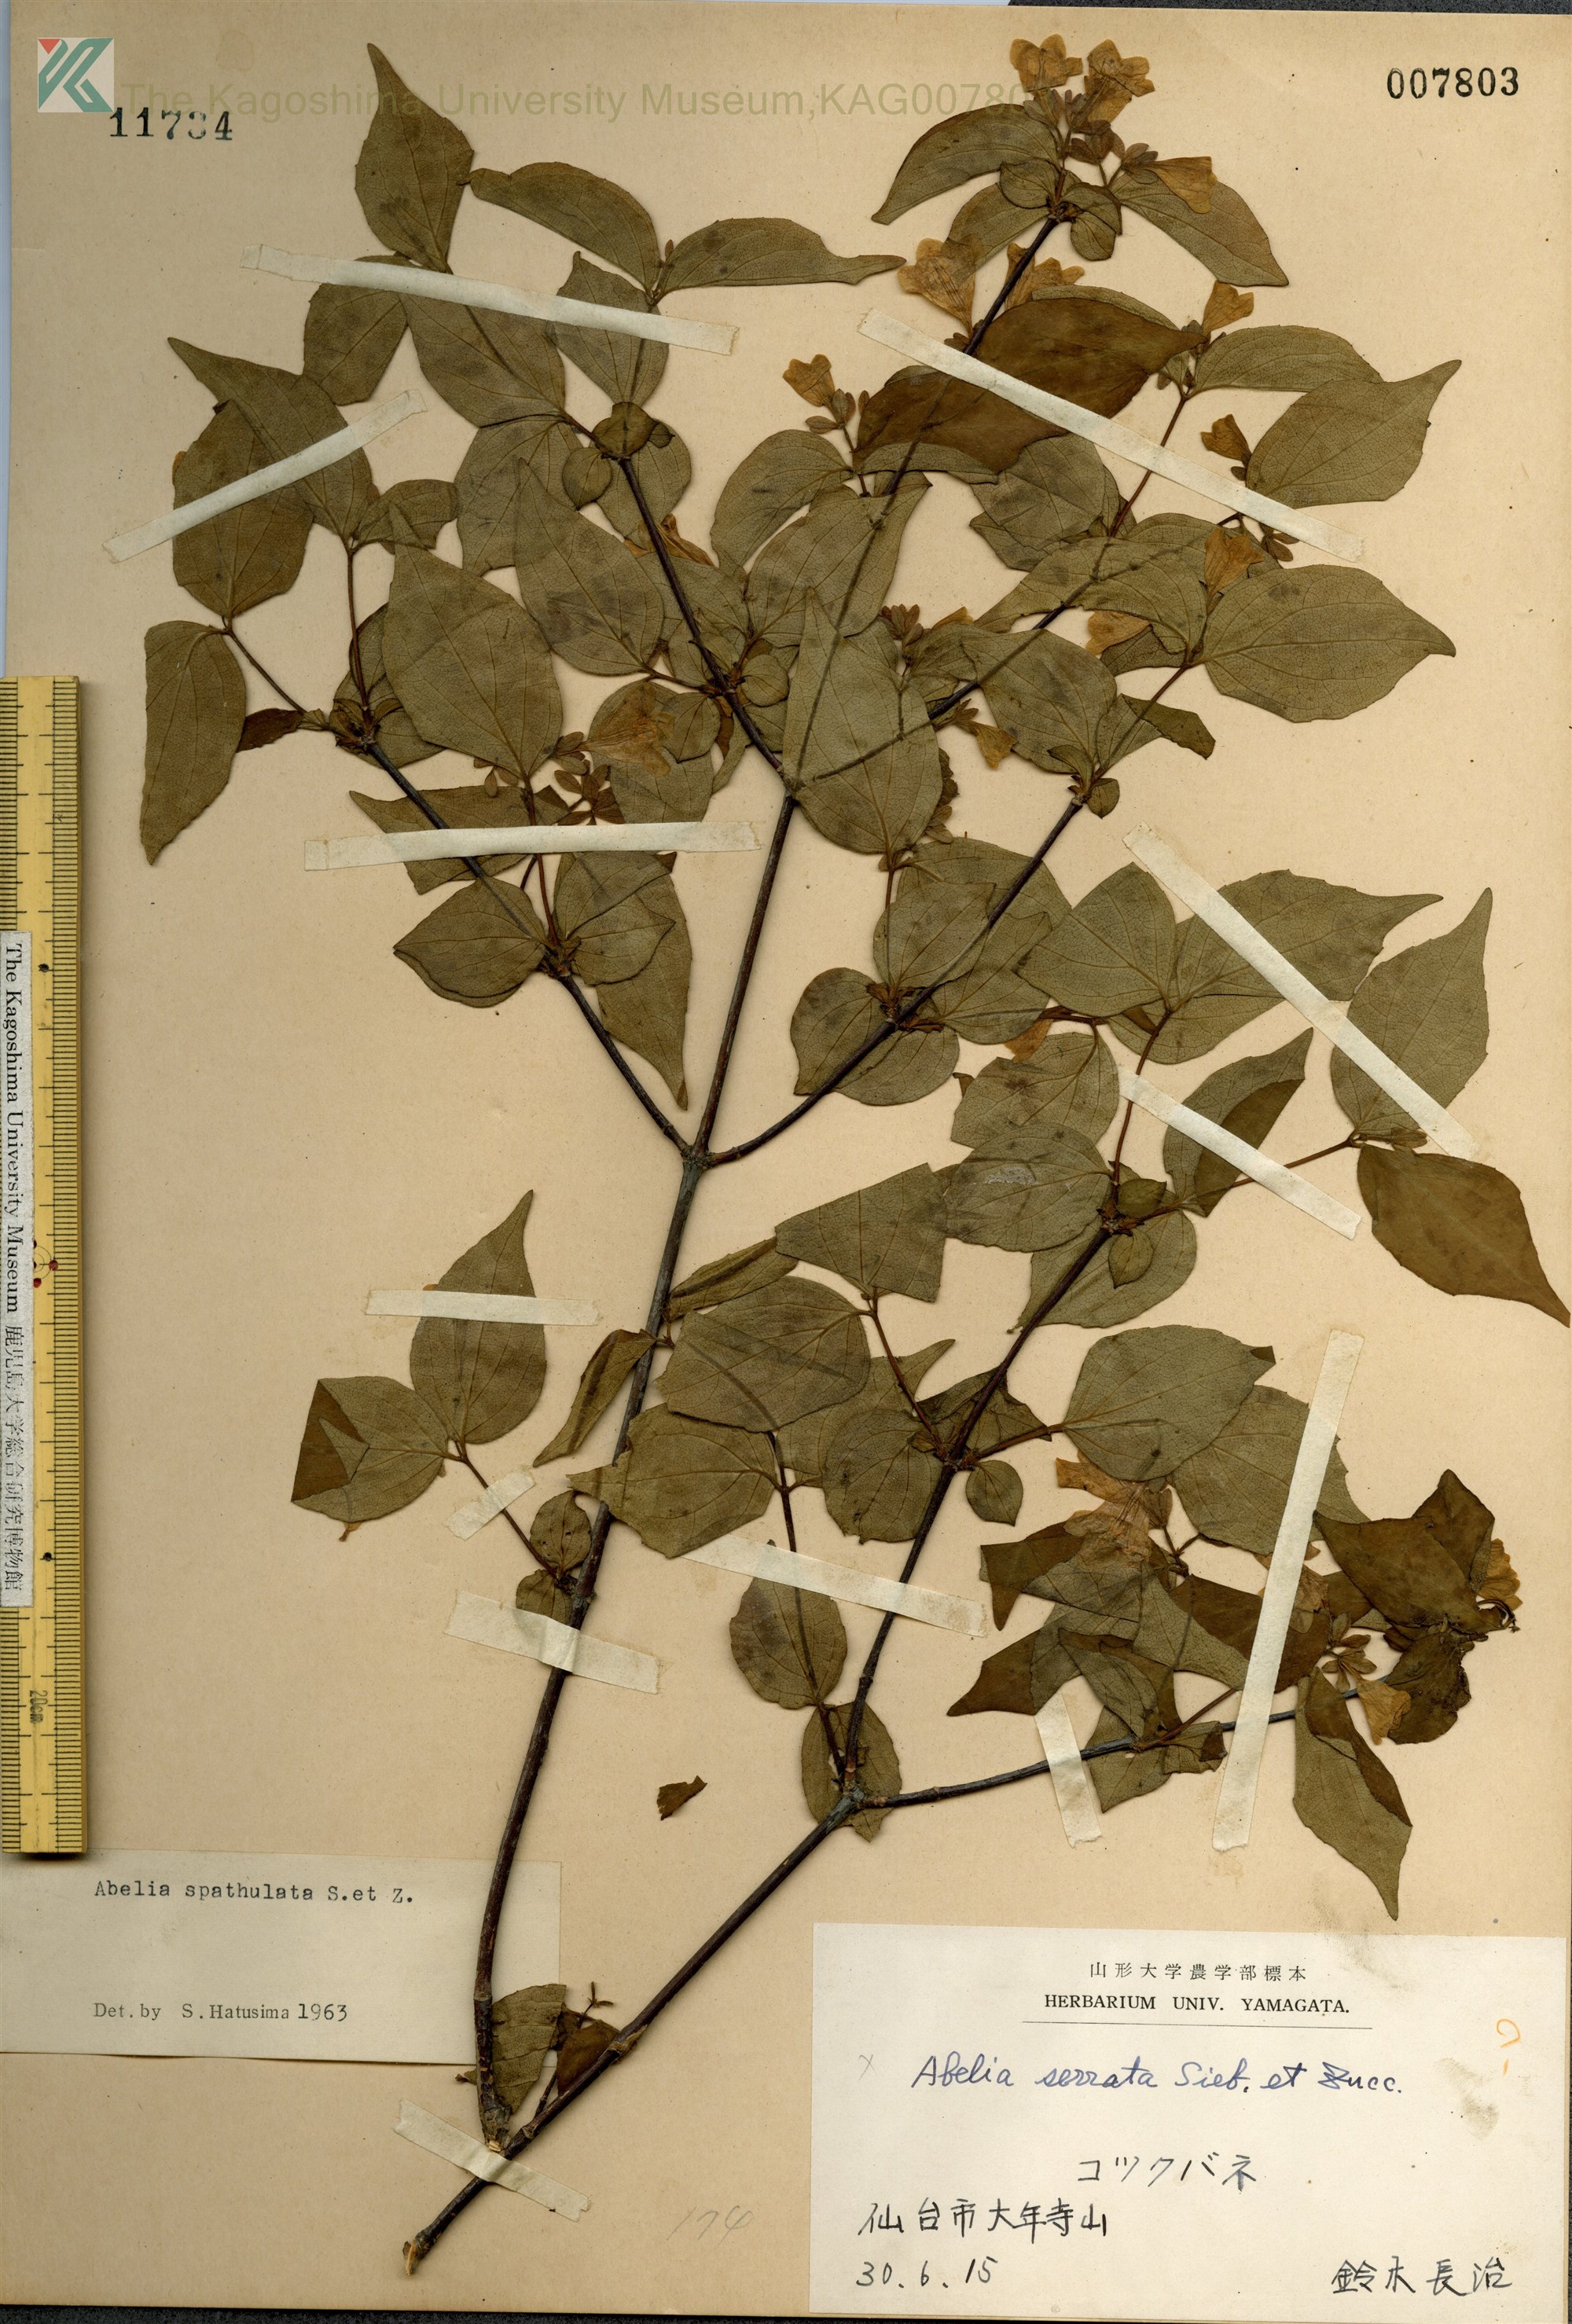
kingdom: Plantae
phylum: Tracheophyta
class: Magnoliopsida
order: Dipsacales
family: Caprifoliaceae
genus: Diabelia
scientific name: Diabelia spathulata
